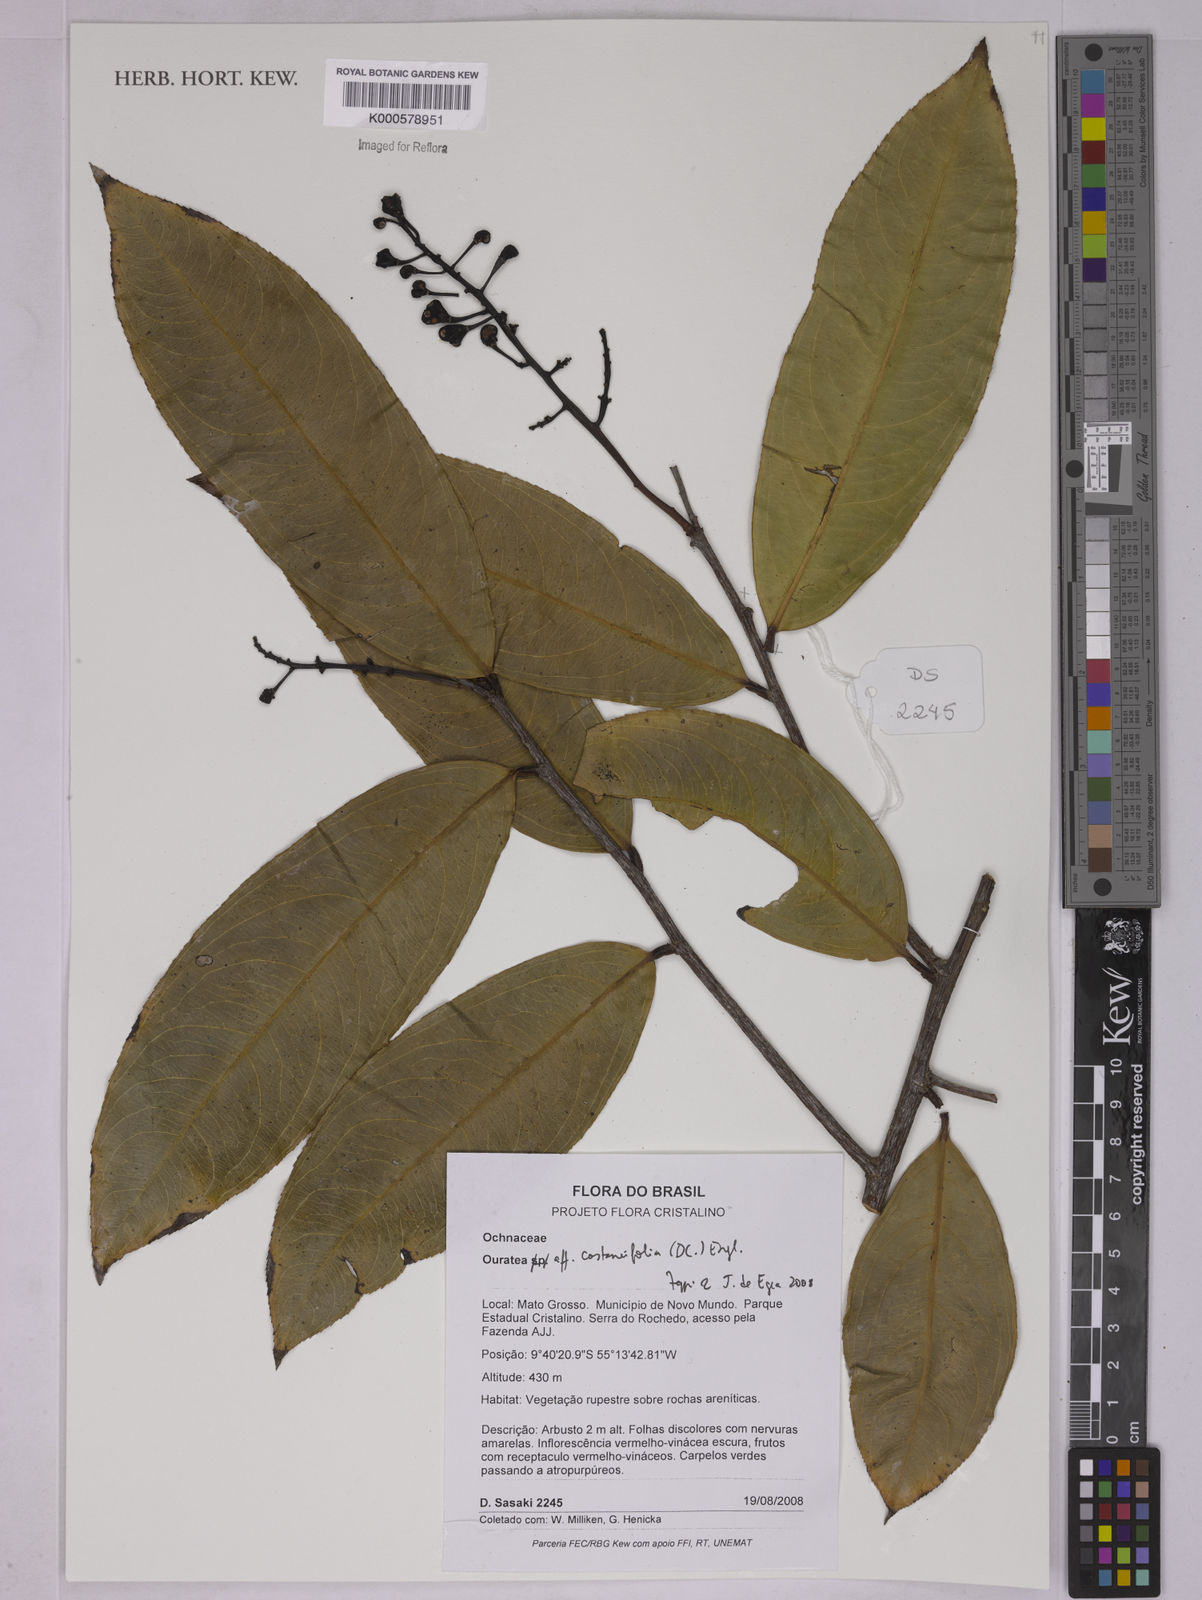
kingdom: Plantae
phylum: Tracheophyta
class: Magnoliopsida
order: Malpighiales
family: Ochnaceae
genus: Ouratea
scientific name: Ouratea castaneifolia
